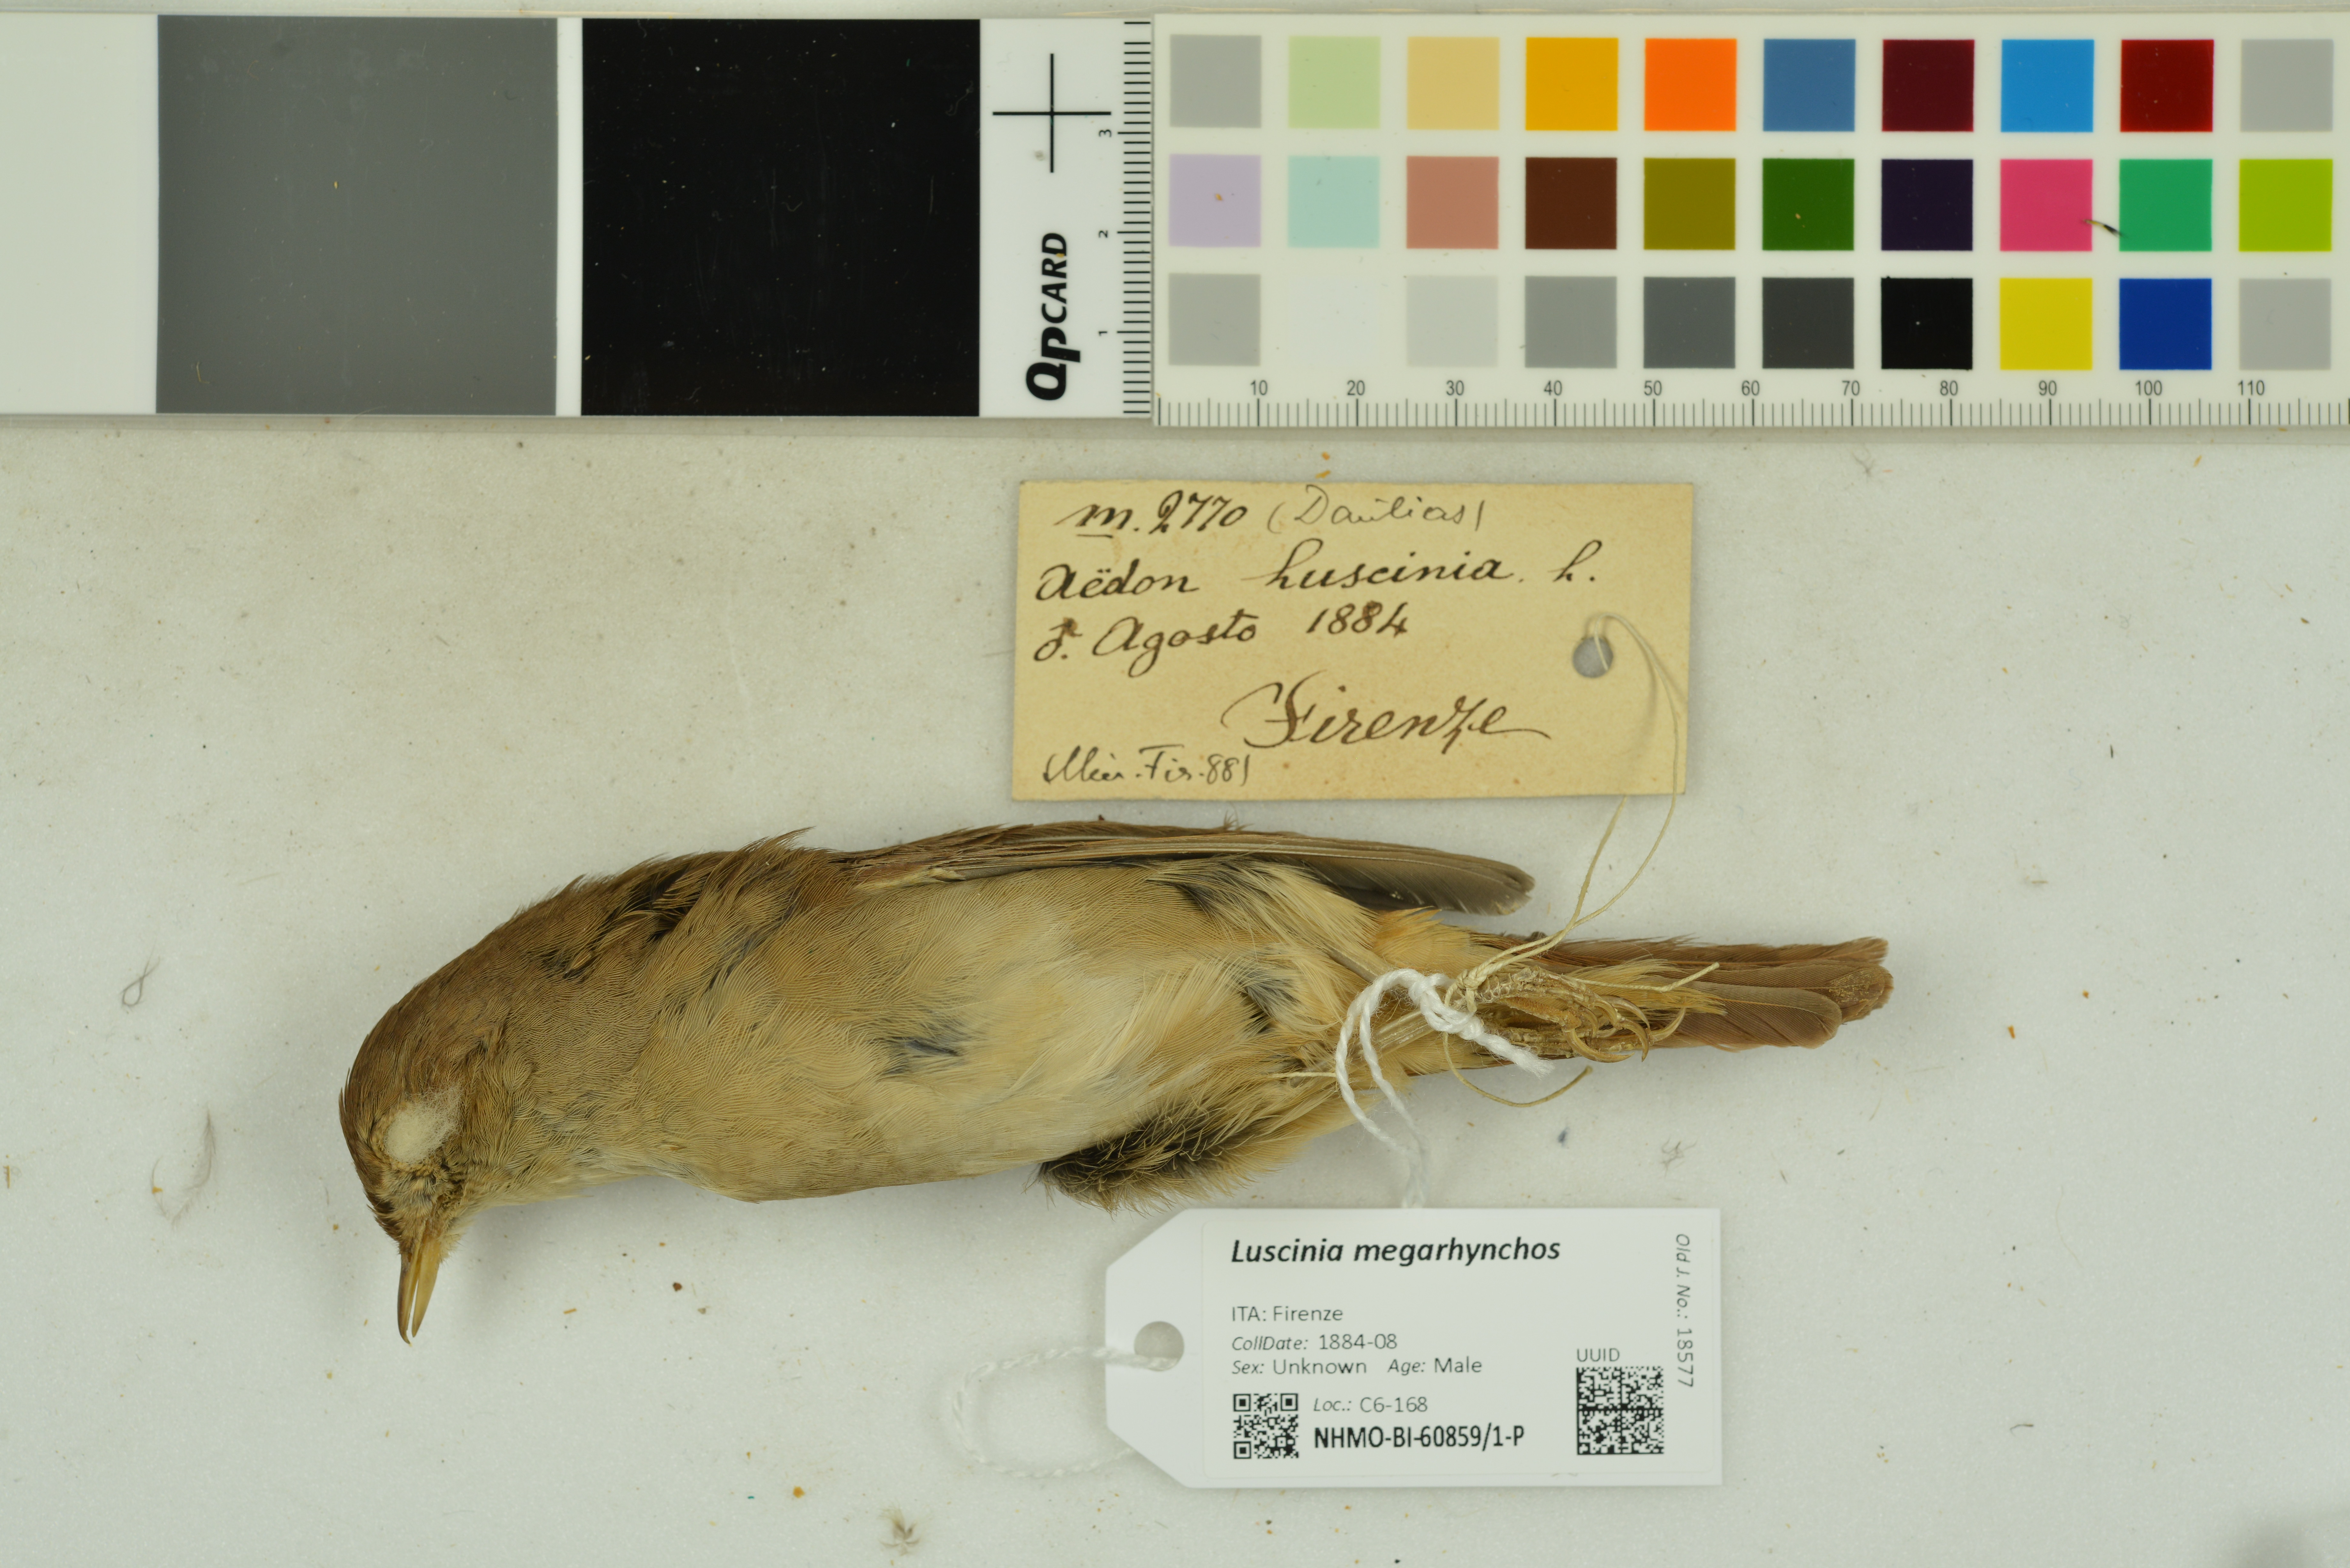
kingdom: Animalia
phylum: Chordata
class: Aves
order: Passeriformes
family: Muscicapidae
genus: Luscinia
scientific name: Luscinia megarhynchos
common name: Common nightingale
